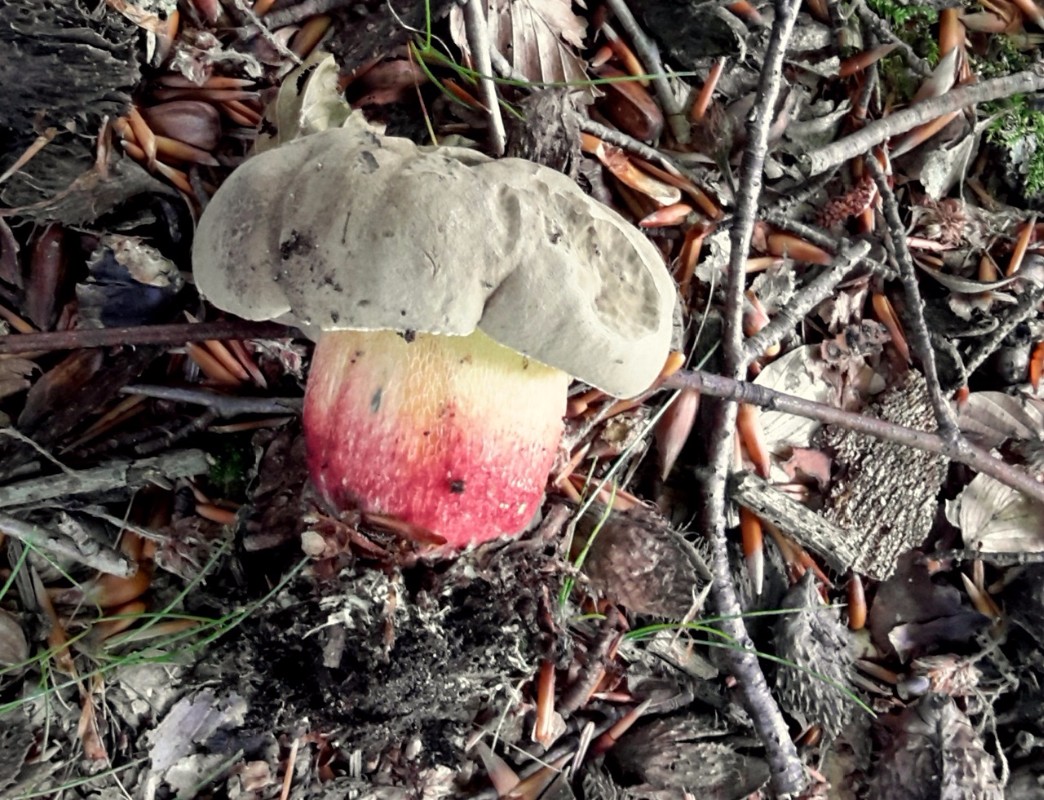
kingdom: Fungi
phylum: Basidiomycota
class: Agaricomycetes
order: Boletales
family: Boletaceae
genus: Caloboletus
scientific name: Caloboletus calopus
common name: skønfodet rørhat
